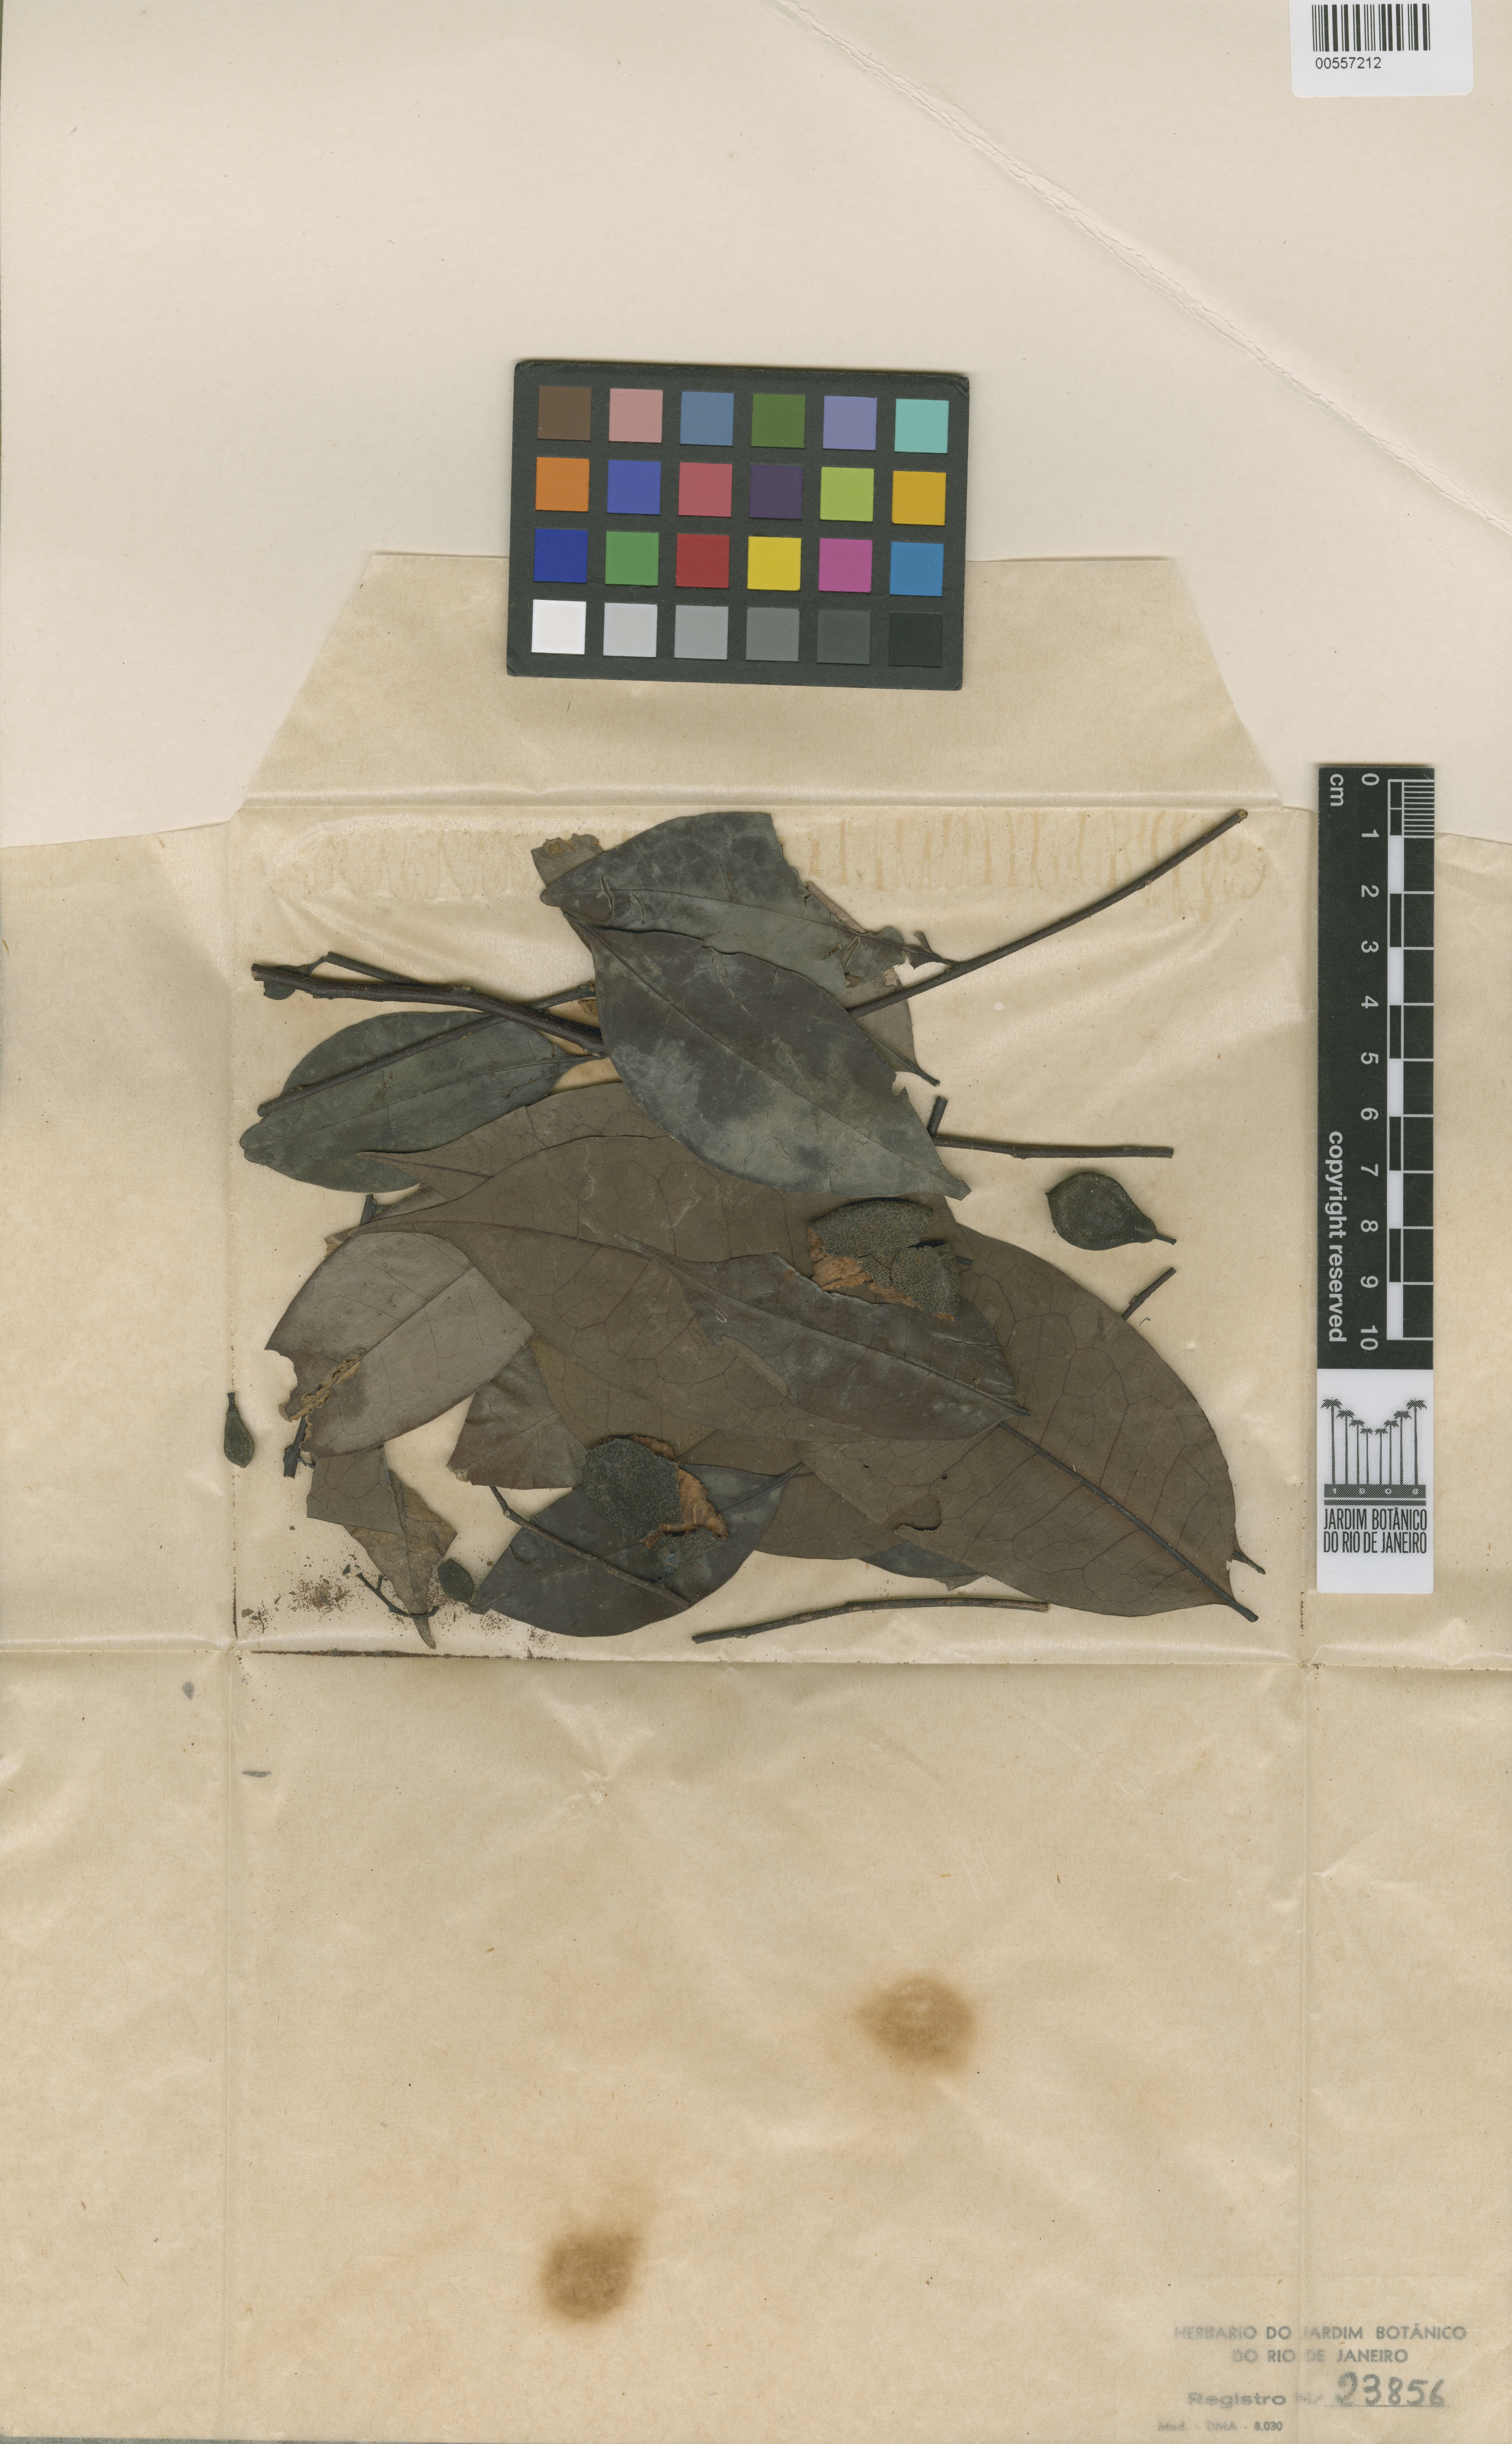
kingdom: Plantae
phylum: Tracheophyta
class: Magnoliopsida
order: Santalales
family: Olacaceae
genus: Ptychopetalum
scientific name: Ptychopetalum uncinatum
